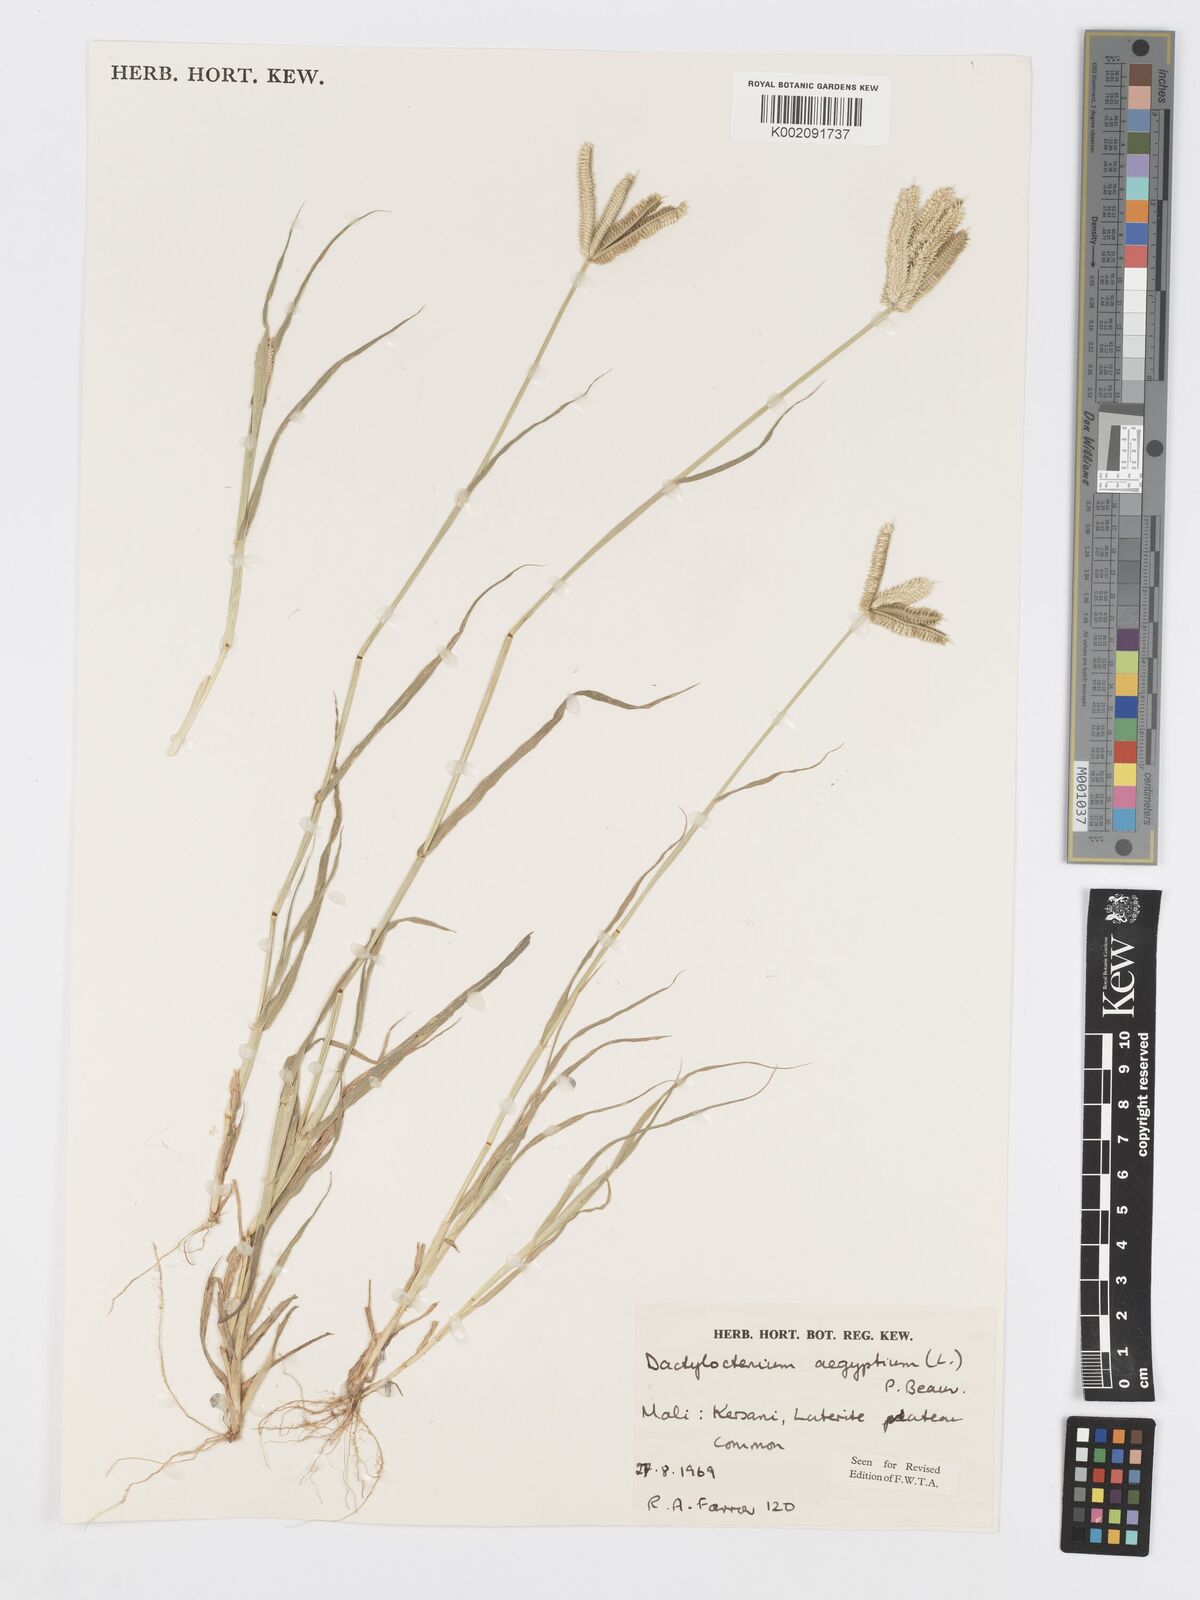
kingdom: Plantae
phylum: Tracheophyta
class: Liliopsida
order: Poales
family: Poaceae
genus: Dactyloctenium
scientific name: Dactyloctenium aegyptium
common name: Egyptian grass
